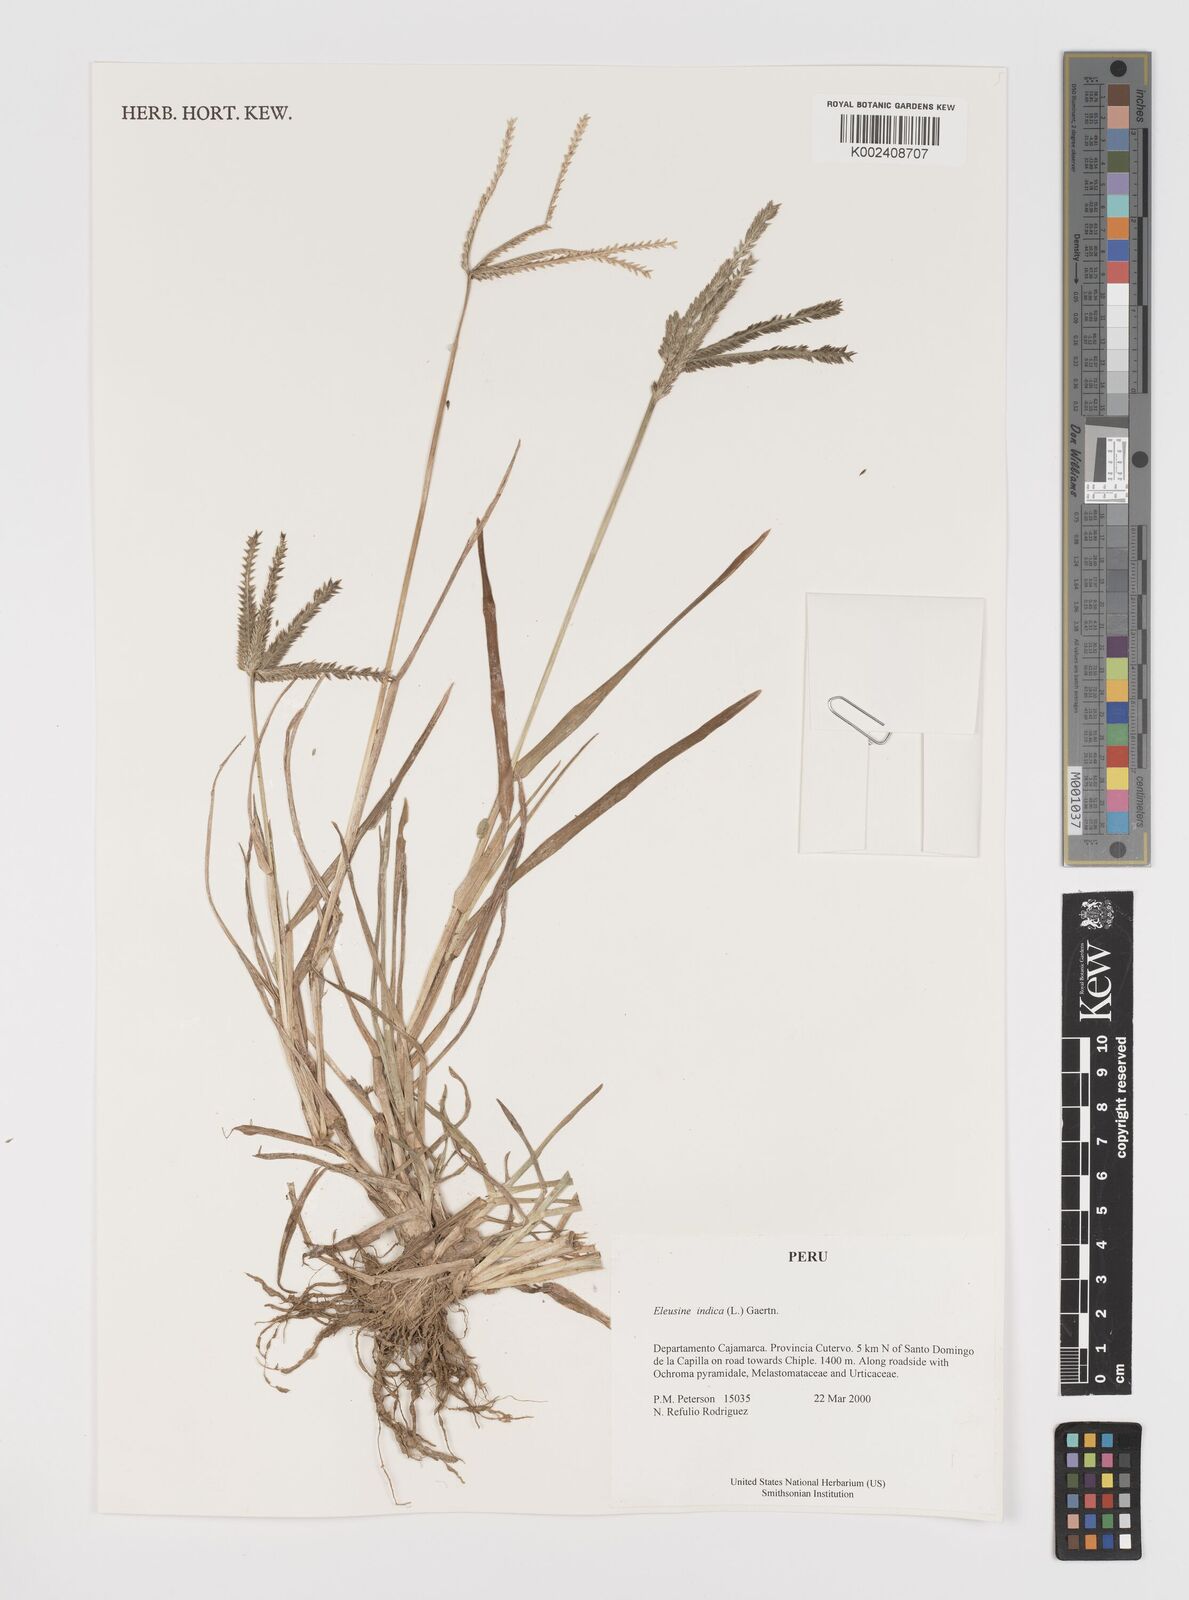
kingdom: Plantae
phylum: Tracheophyta
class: Liliopsida
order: Poales
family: Poaceae
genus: Eleusine
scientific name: Eleusine indica
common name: Yard-grass
